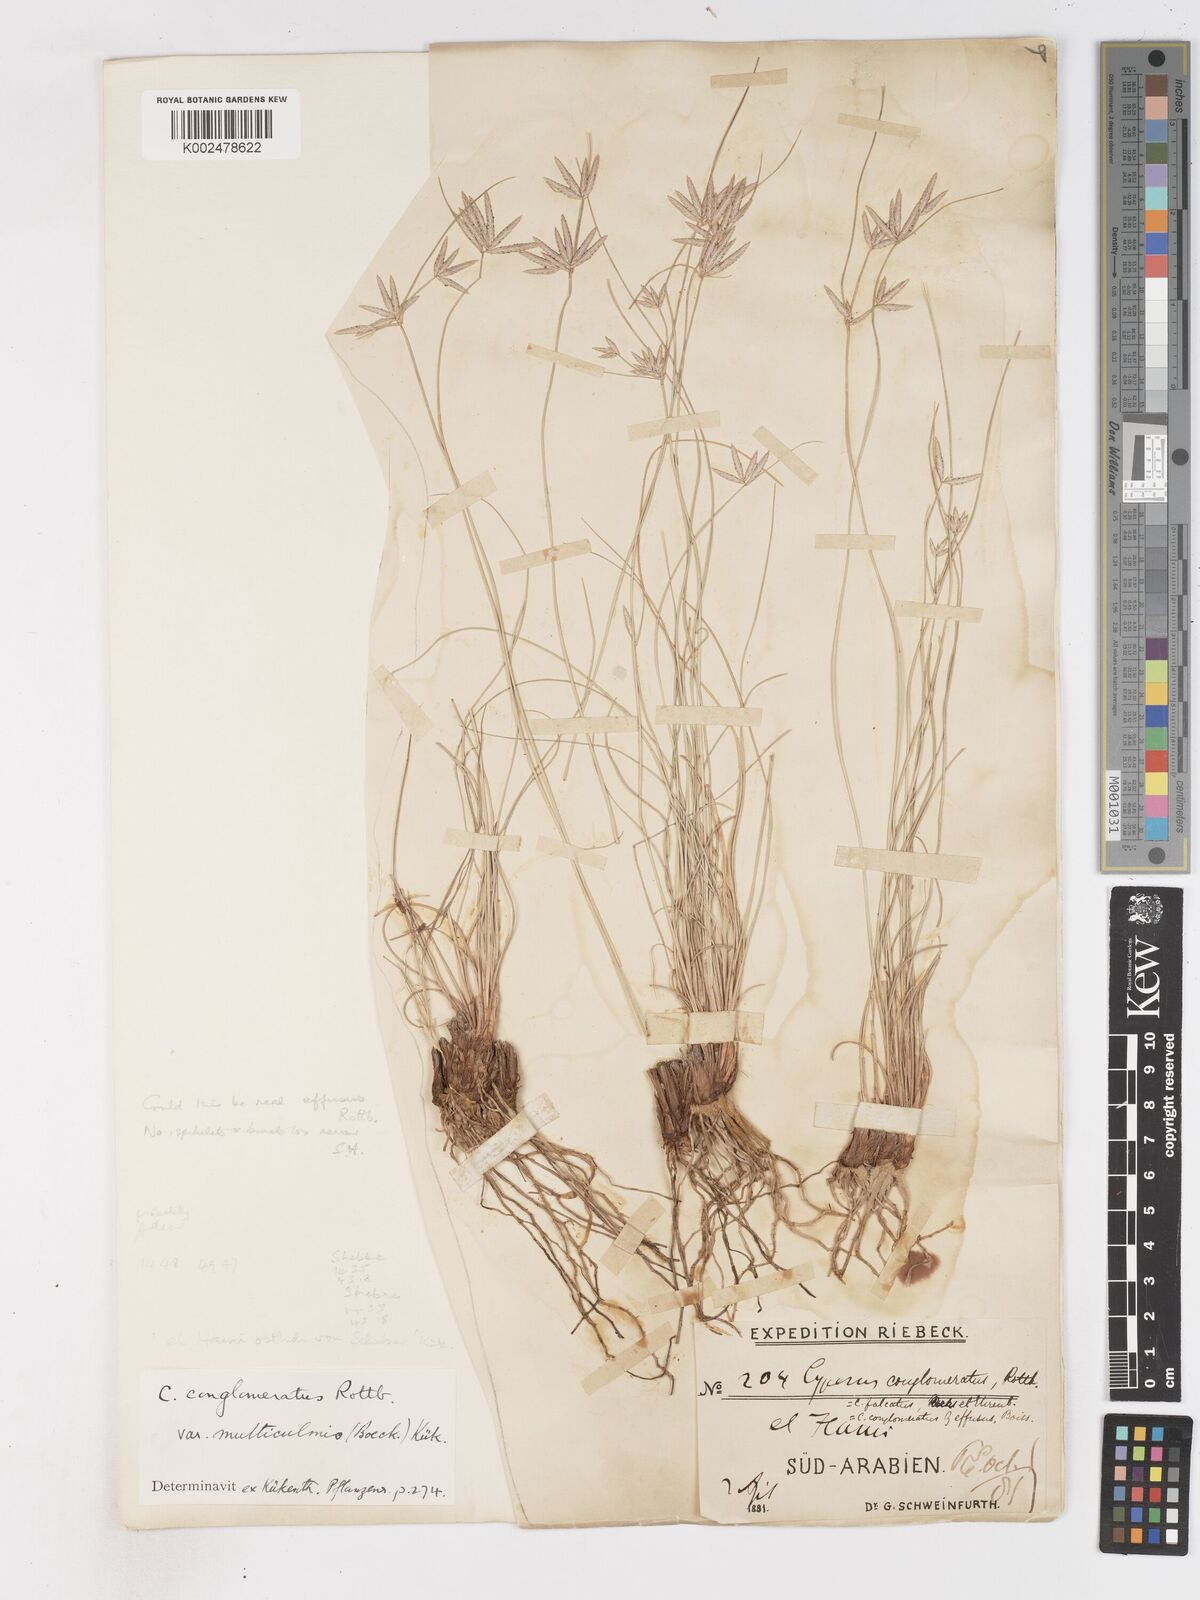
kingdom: Plantae
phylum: Tracheophyta
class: Liliopsida
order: Poales
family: Cyperaceae
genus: Cyperus
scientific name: Cyperus conglomeratus
